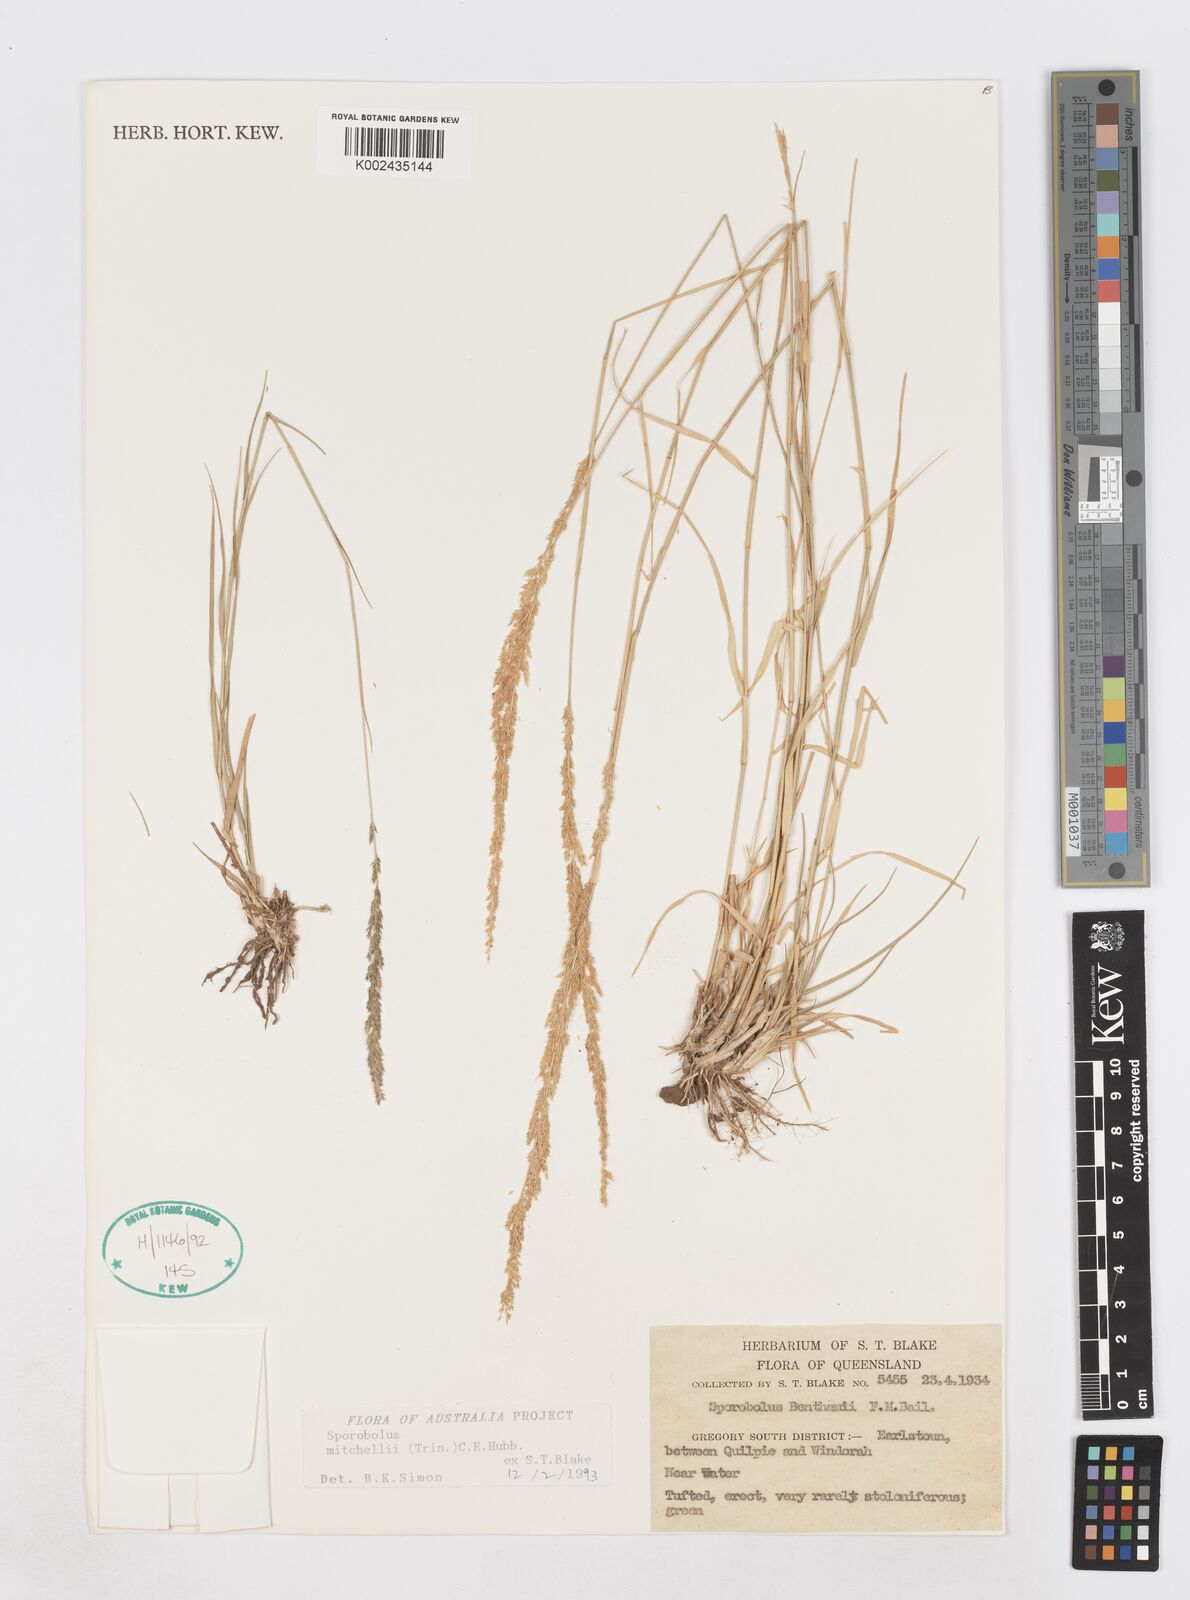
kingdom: Plantae
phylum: Tracheophyta
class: Liliopsida
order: Poales
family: Poaceae
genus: Sporobolus
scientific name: Sporobolus mitchellii
